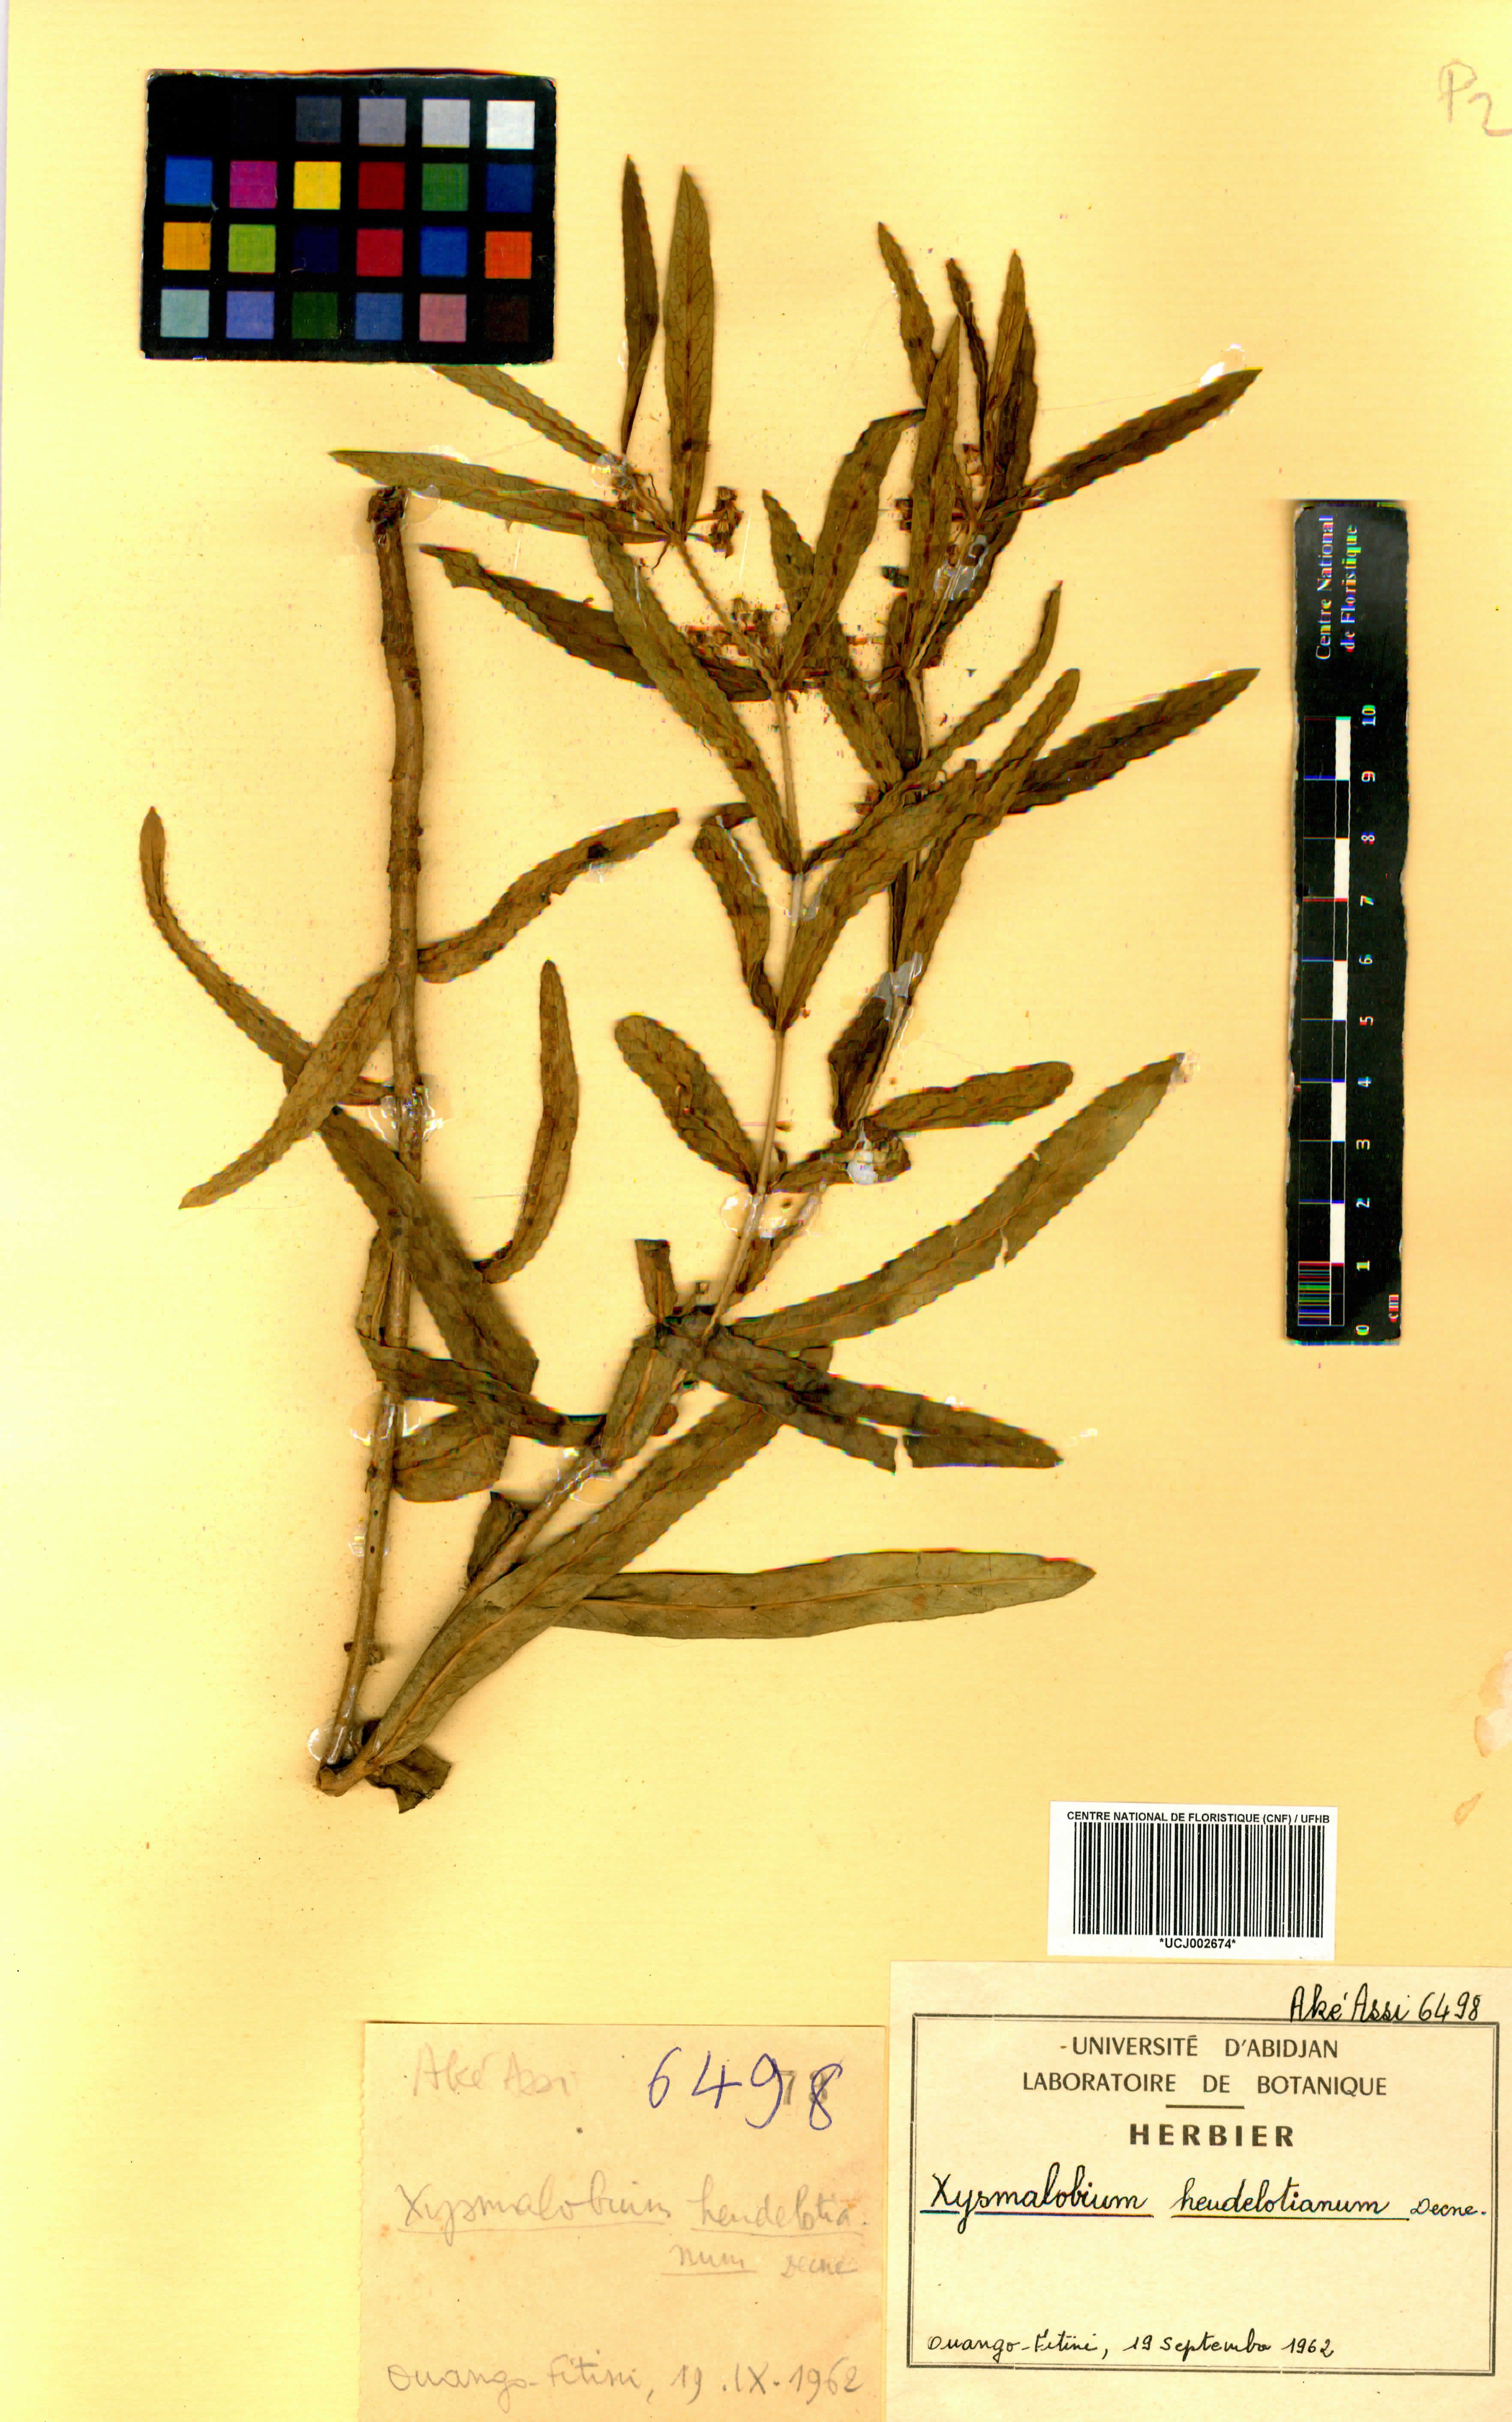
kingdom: Plantae
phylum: Tracheophyta
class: Magnoliopsida
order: Gentianales
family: Apocynaceae
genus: Xysmalobium
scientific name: Xysmalobium heudelotianum
